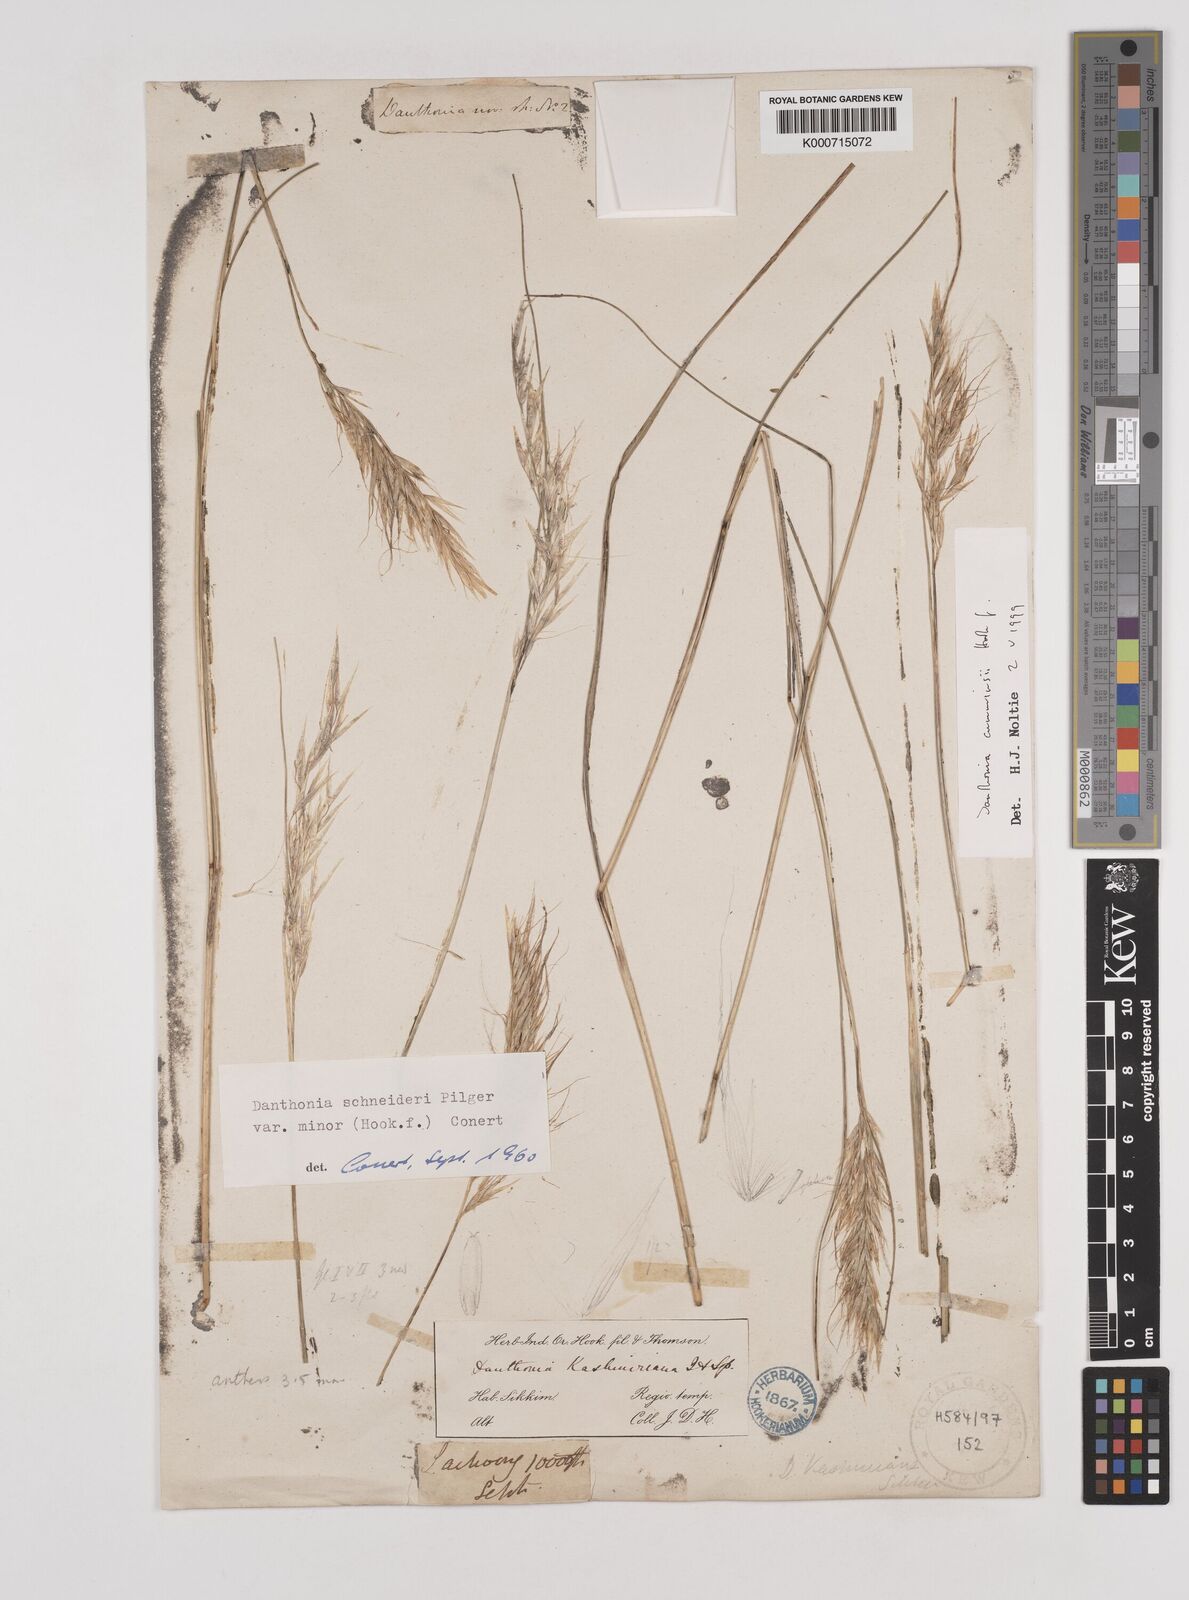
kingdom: Plantae
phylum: Tracheophyta
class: Liliopsida
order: Poales
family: Poaceae
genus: Rytidosperma
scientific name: Rytidosperma
